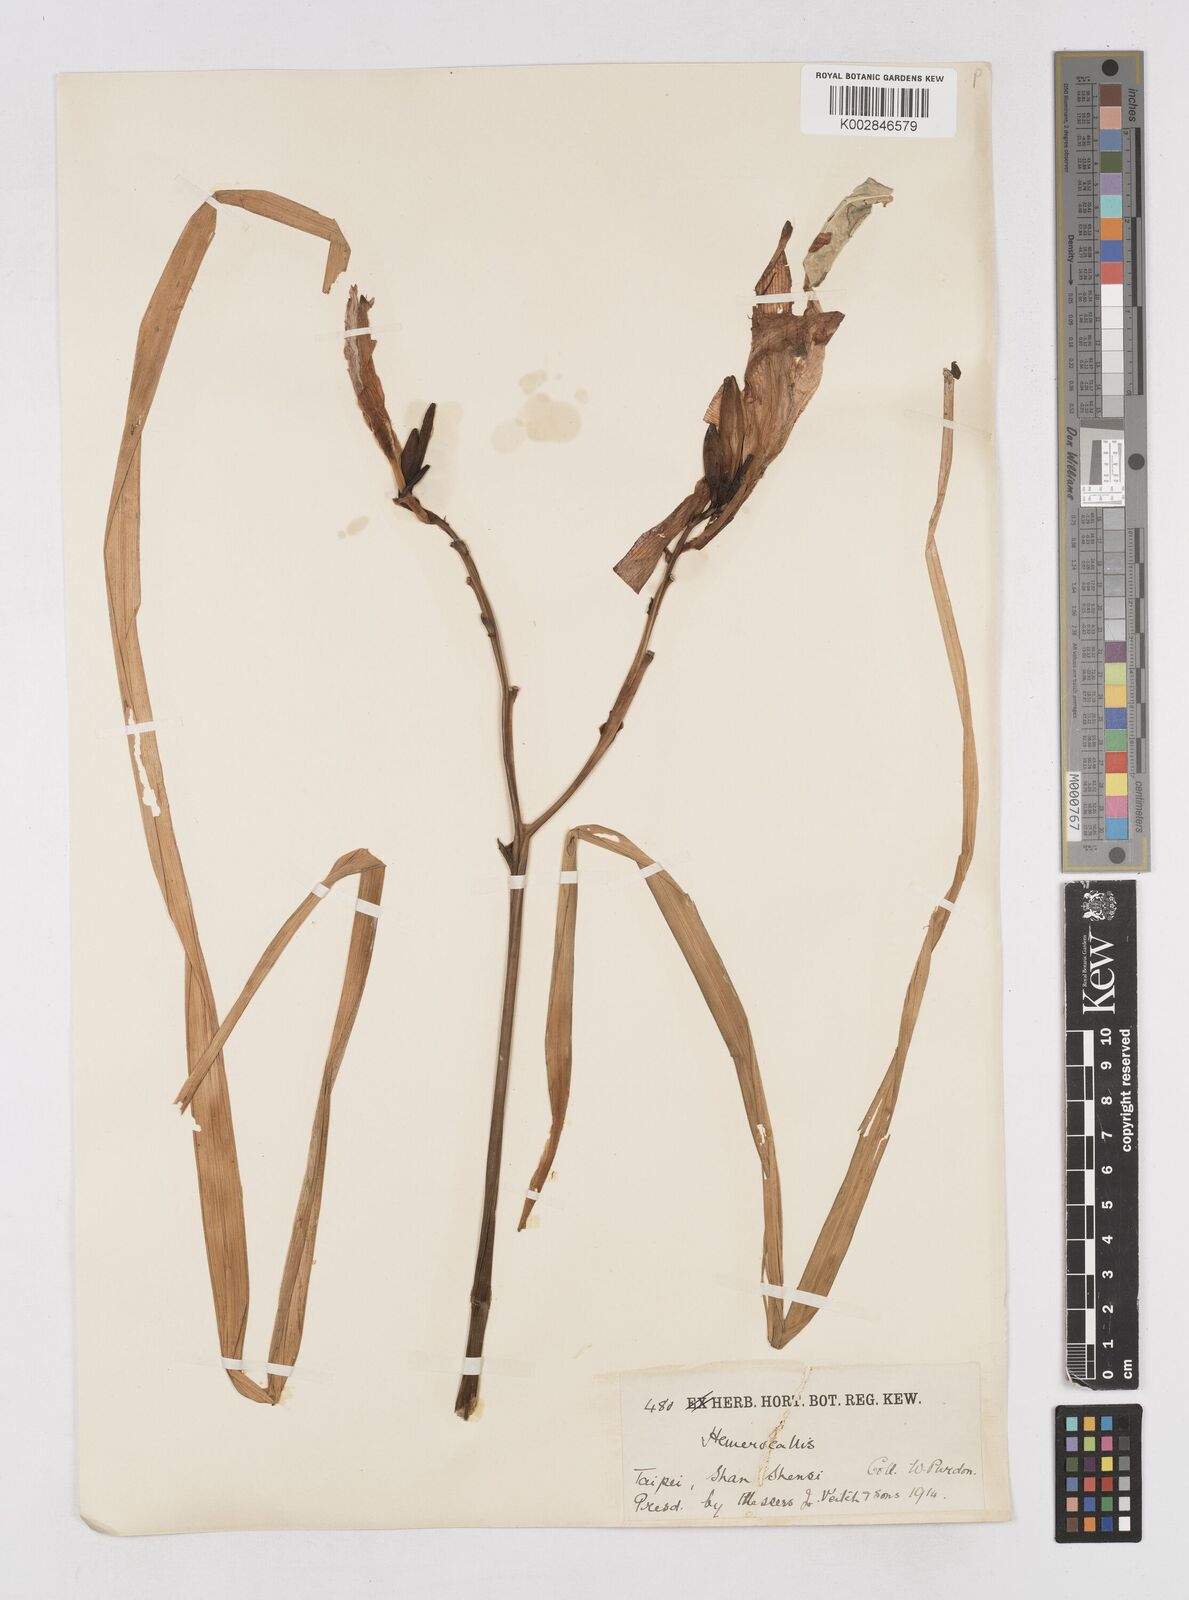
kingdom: Plantae
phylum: Tracheophyta
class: Liliopsida
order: Asparagales
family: Asphodelaceae
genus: Hemerocallis
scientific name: Hemerocallis
